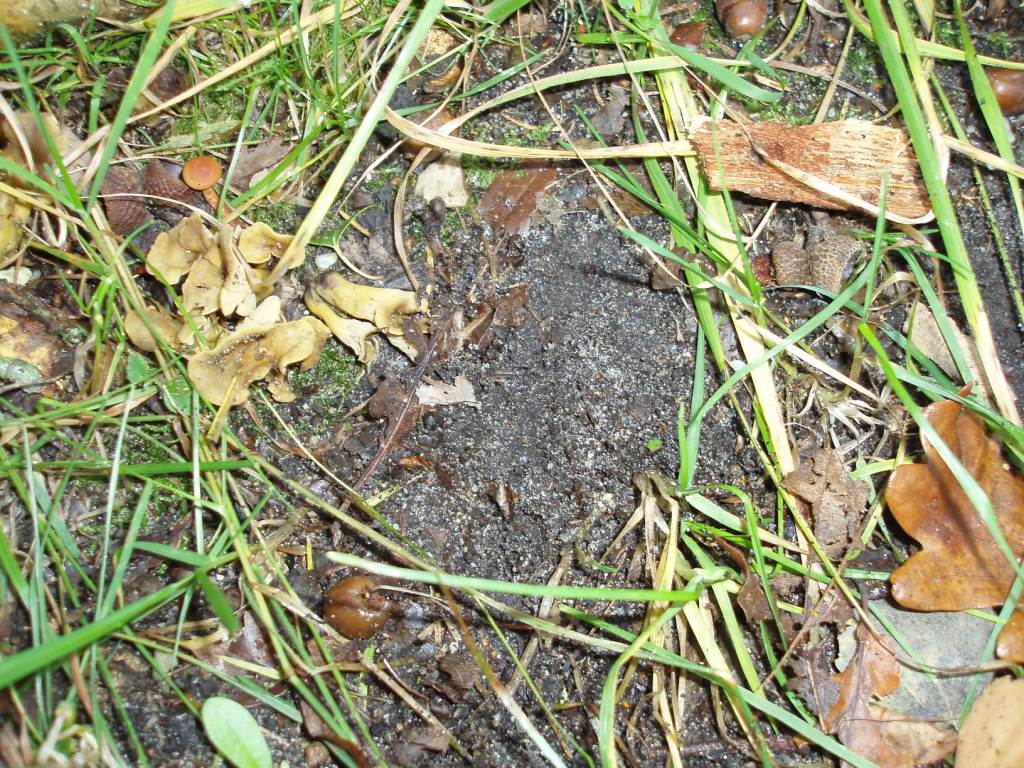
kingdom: Fungi
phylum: Basidiomycota
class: Agaricomycetes
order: Cantharellales
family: Hydnaceae
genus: Cantharellus
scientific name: Cantharellus melanoxeros
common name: sværtende kantarel
